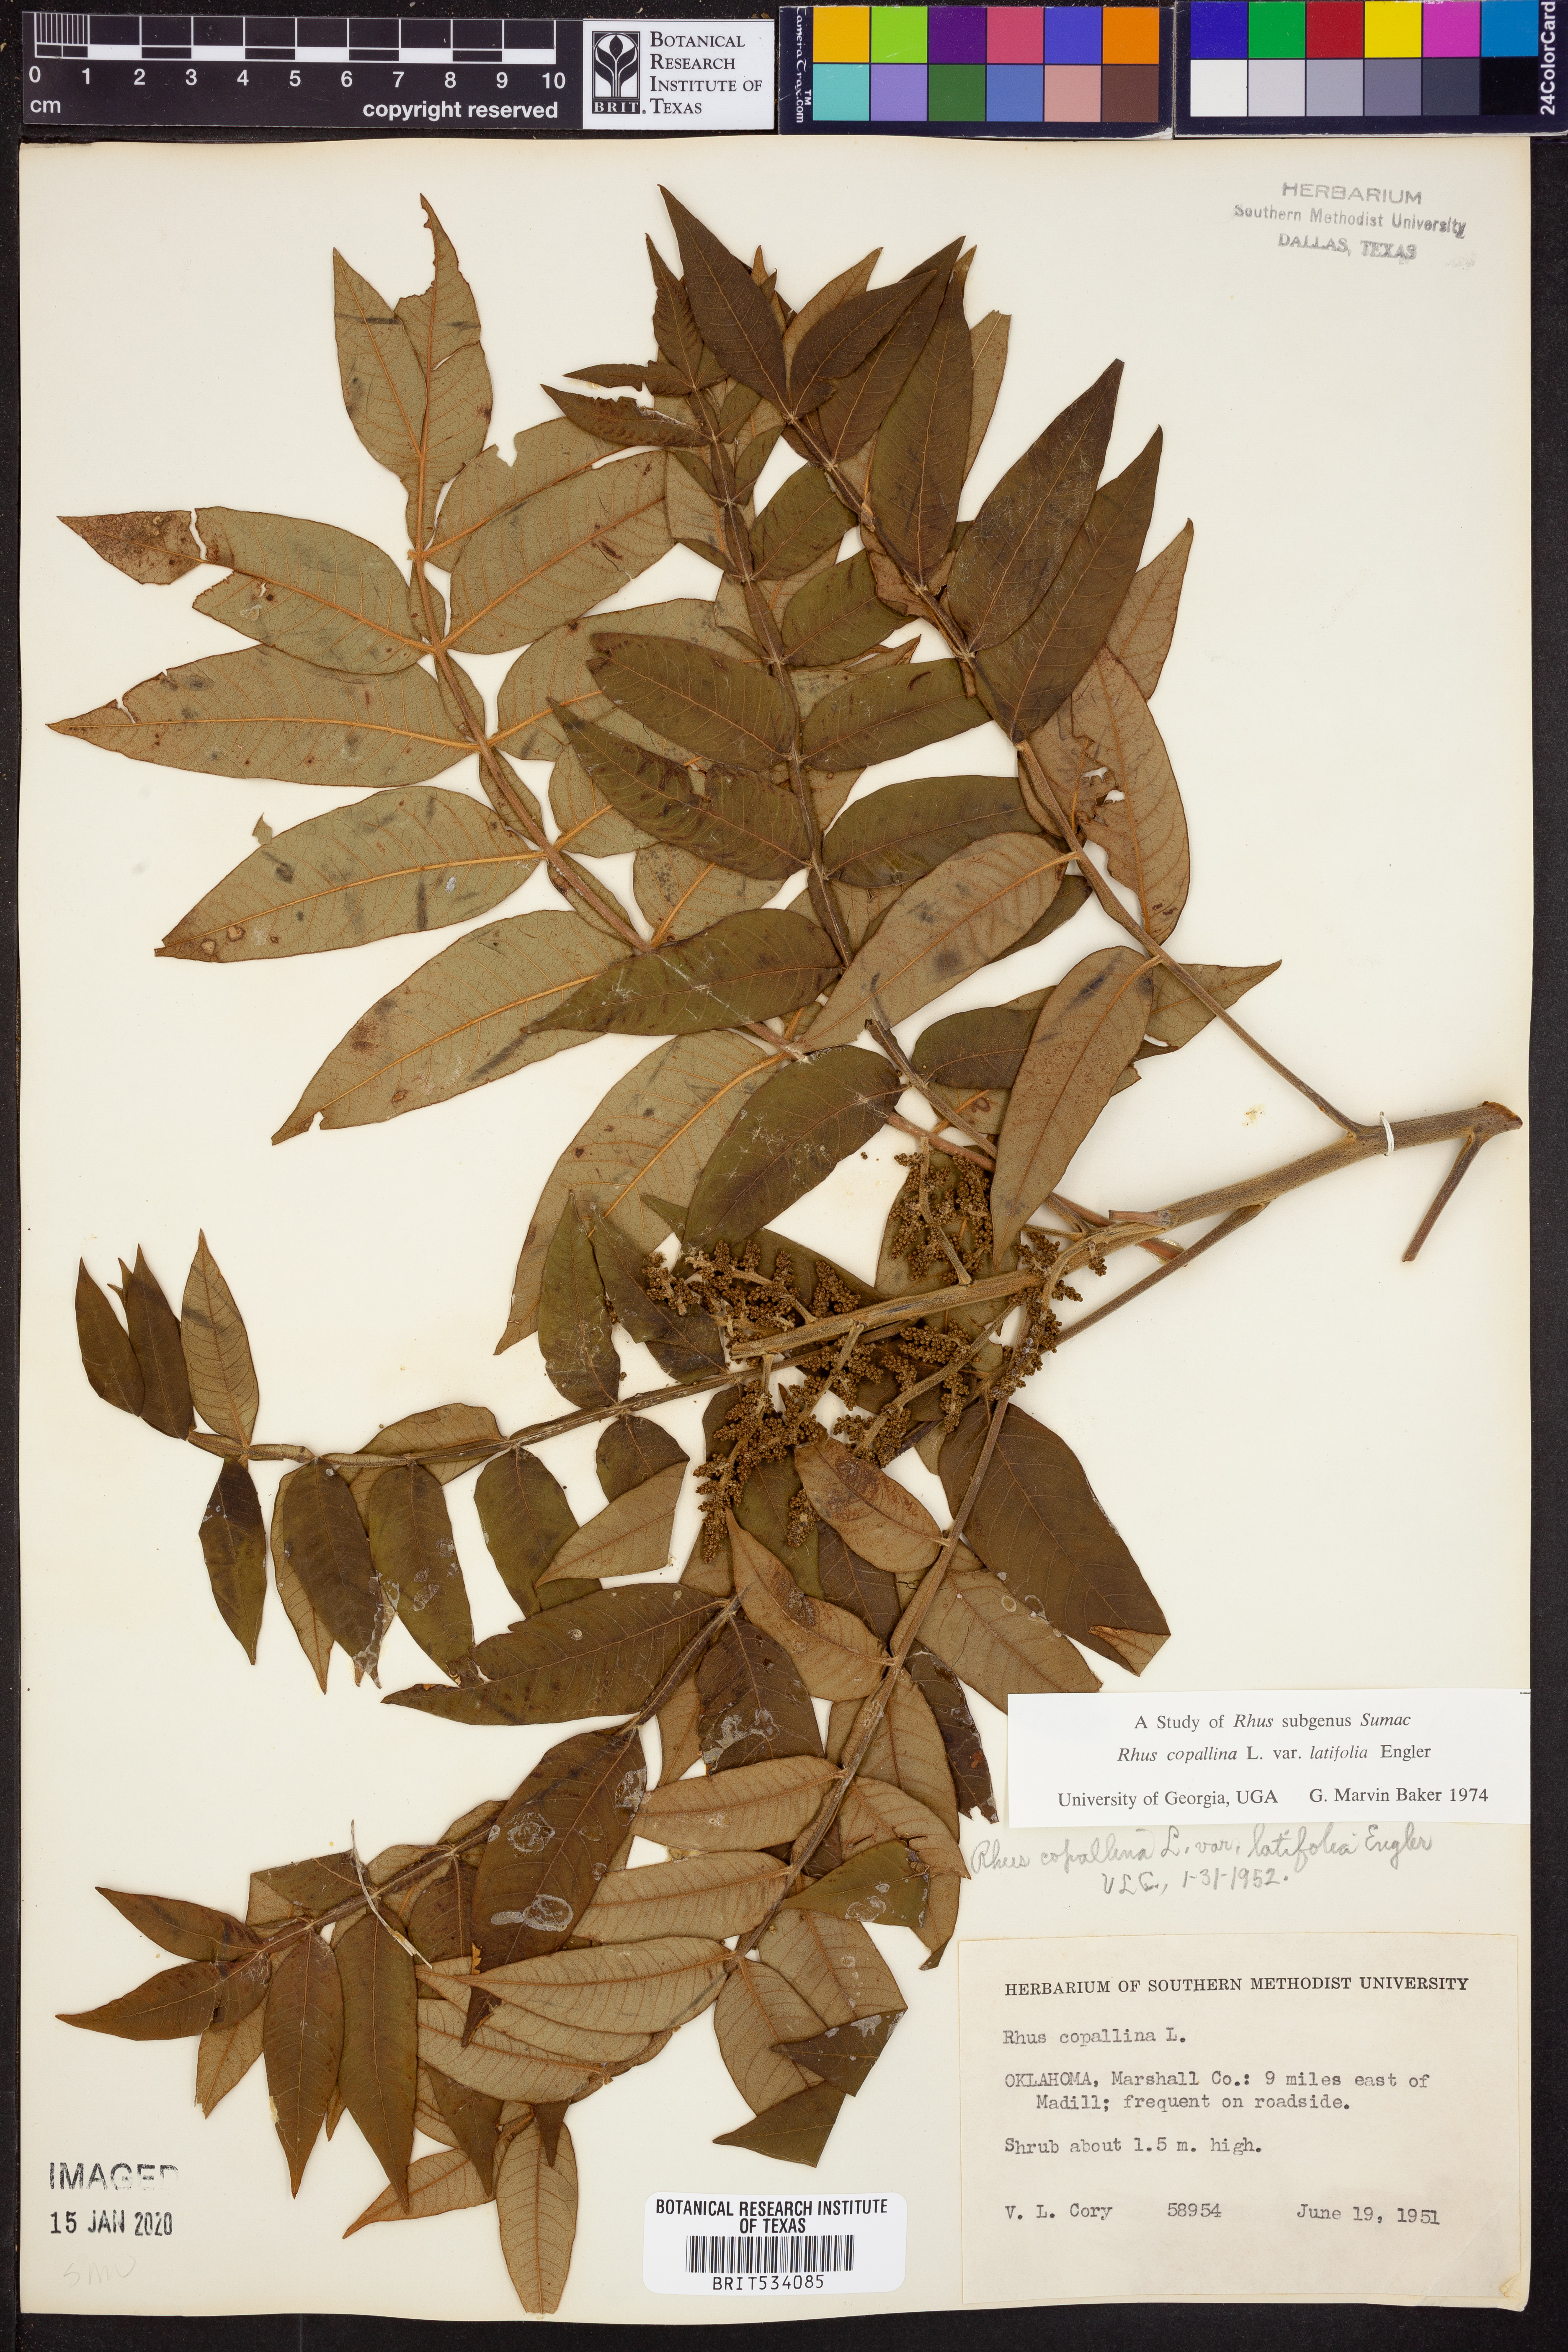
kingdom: Plantae
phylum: Tracheophyta
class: Magnoliopsida
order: Sapindales
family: Anacardiaceae
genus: Rhus
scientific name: Rhus copallina
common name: Shining sumac
